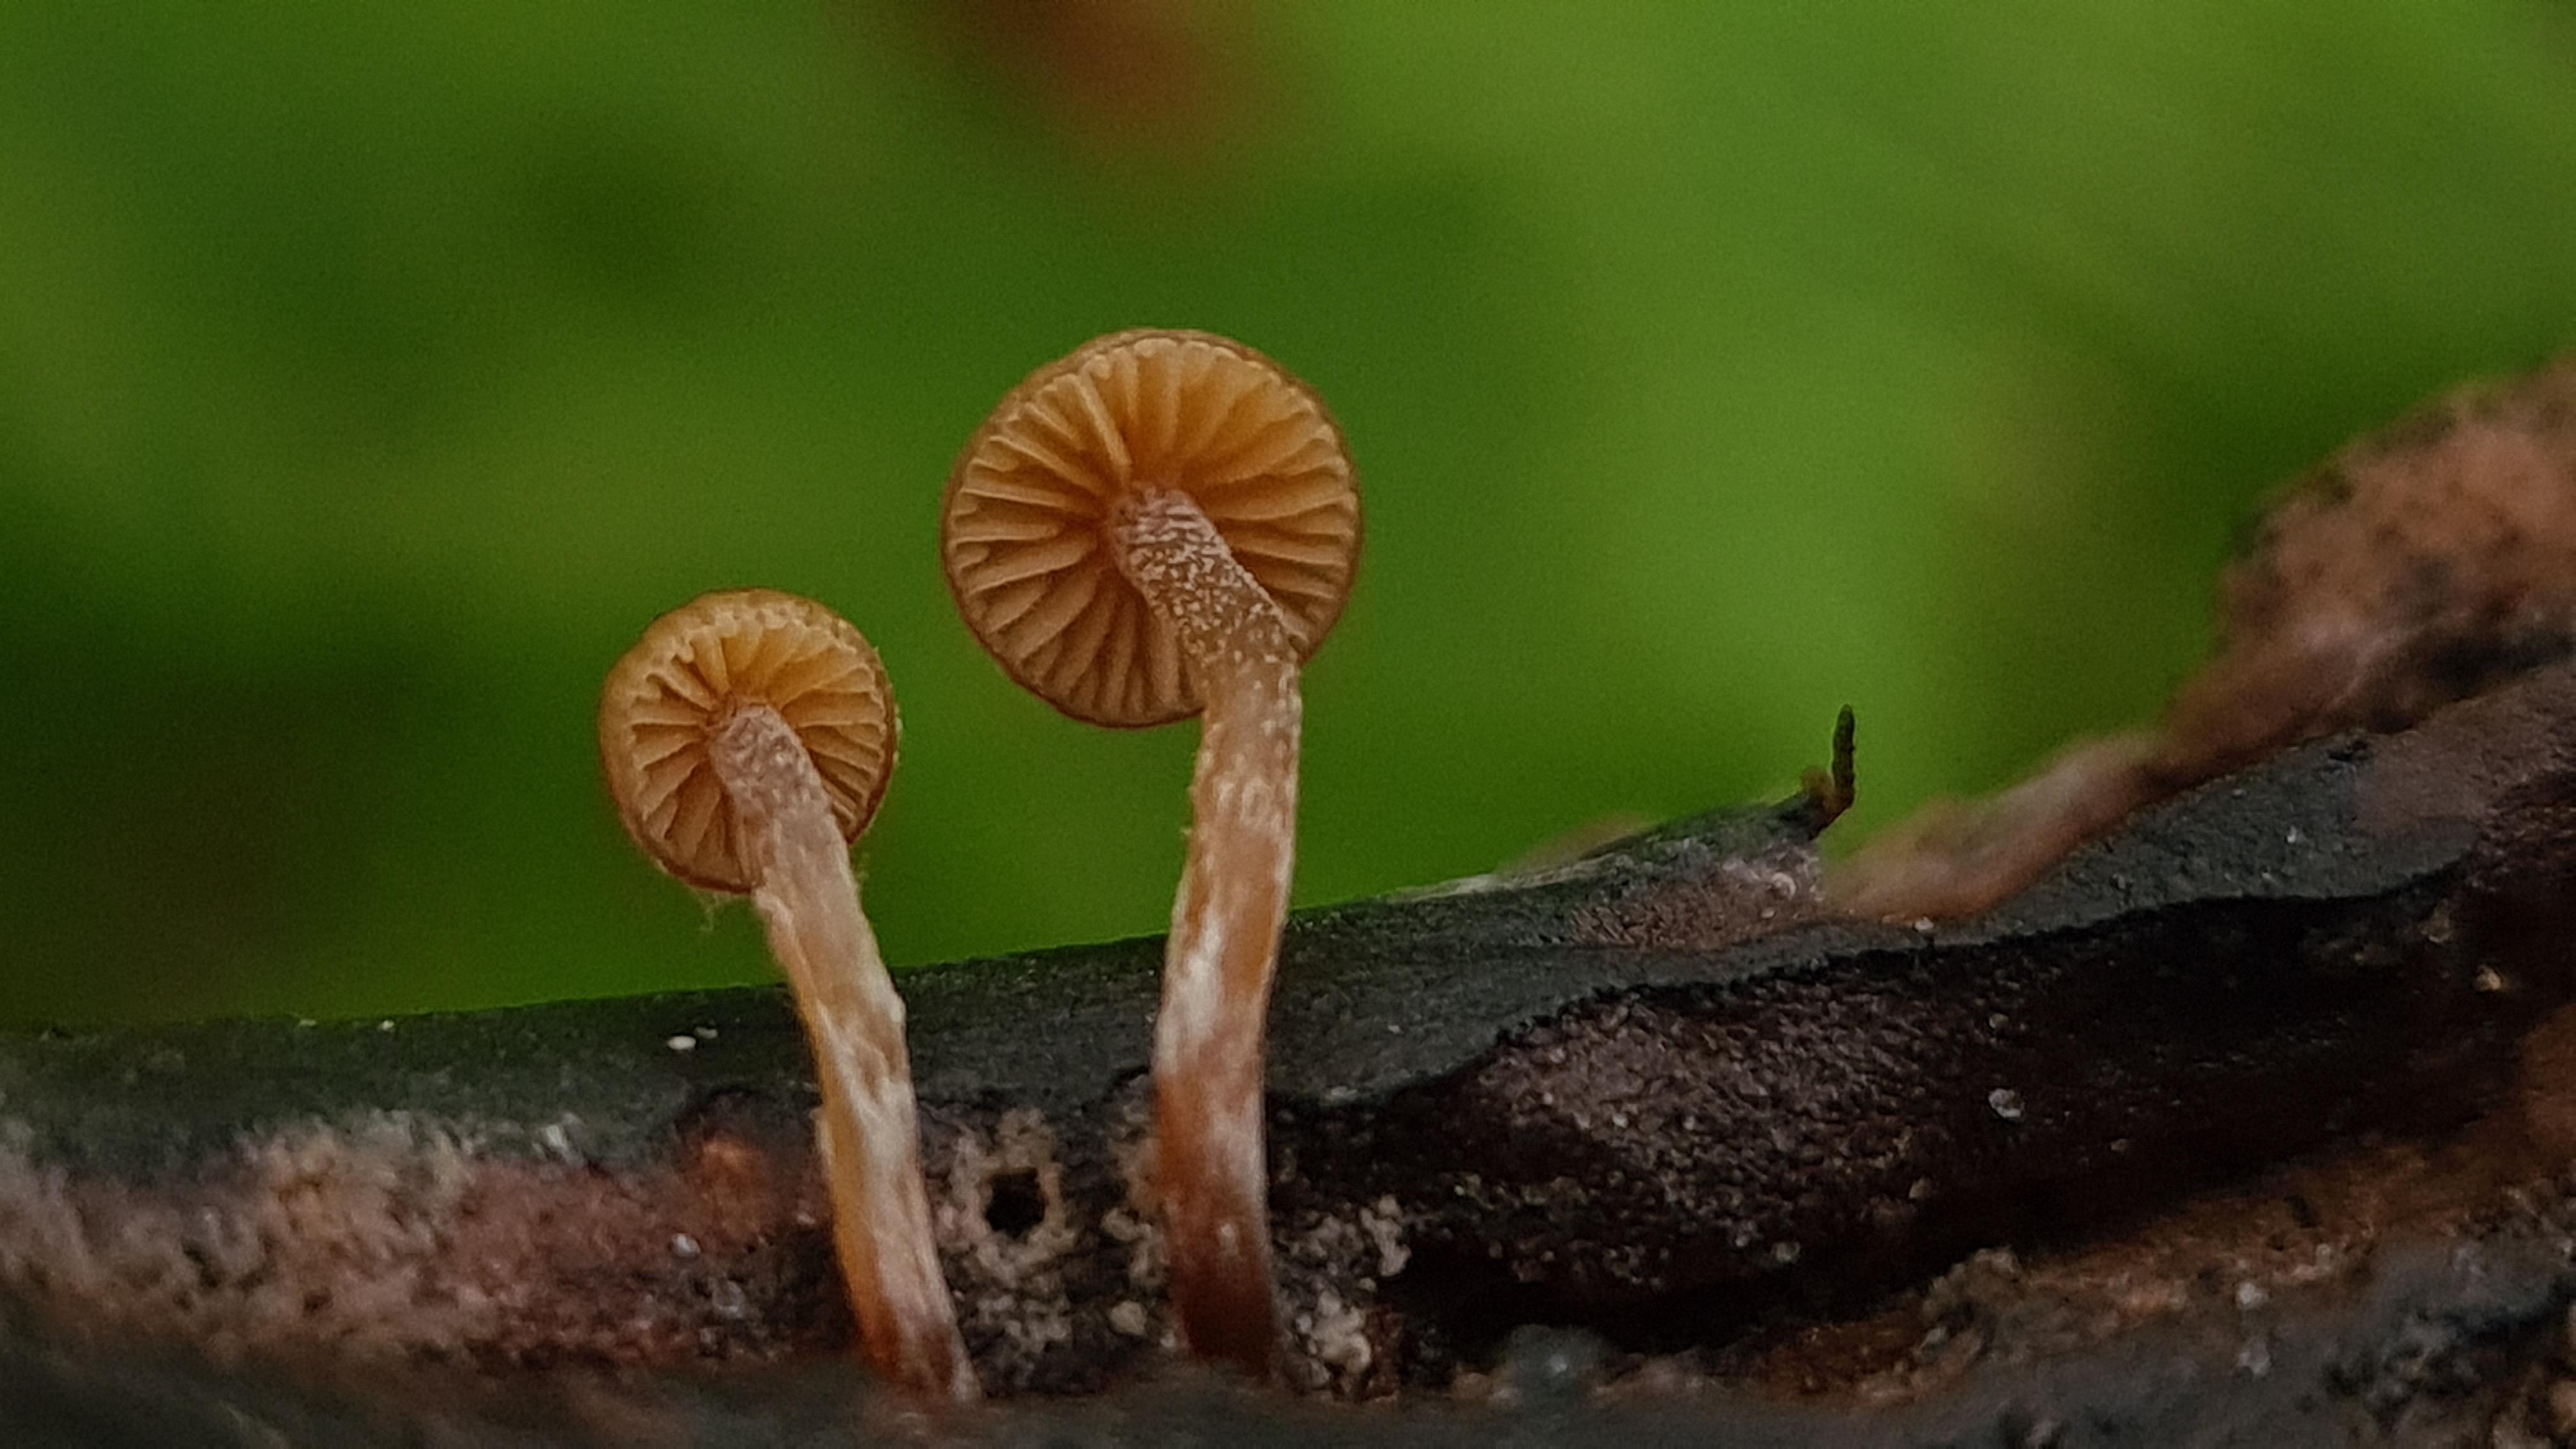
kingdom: Fungi
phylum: Basidiomycota
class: Agaricomycetes
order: Agaricales
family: Hymenogastraceae
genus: Galerina
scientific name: Galerina
